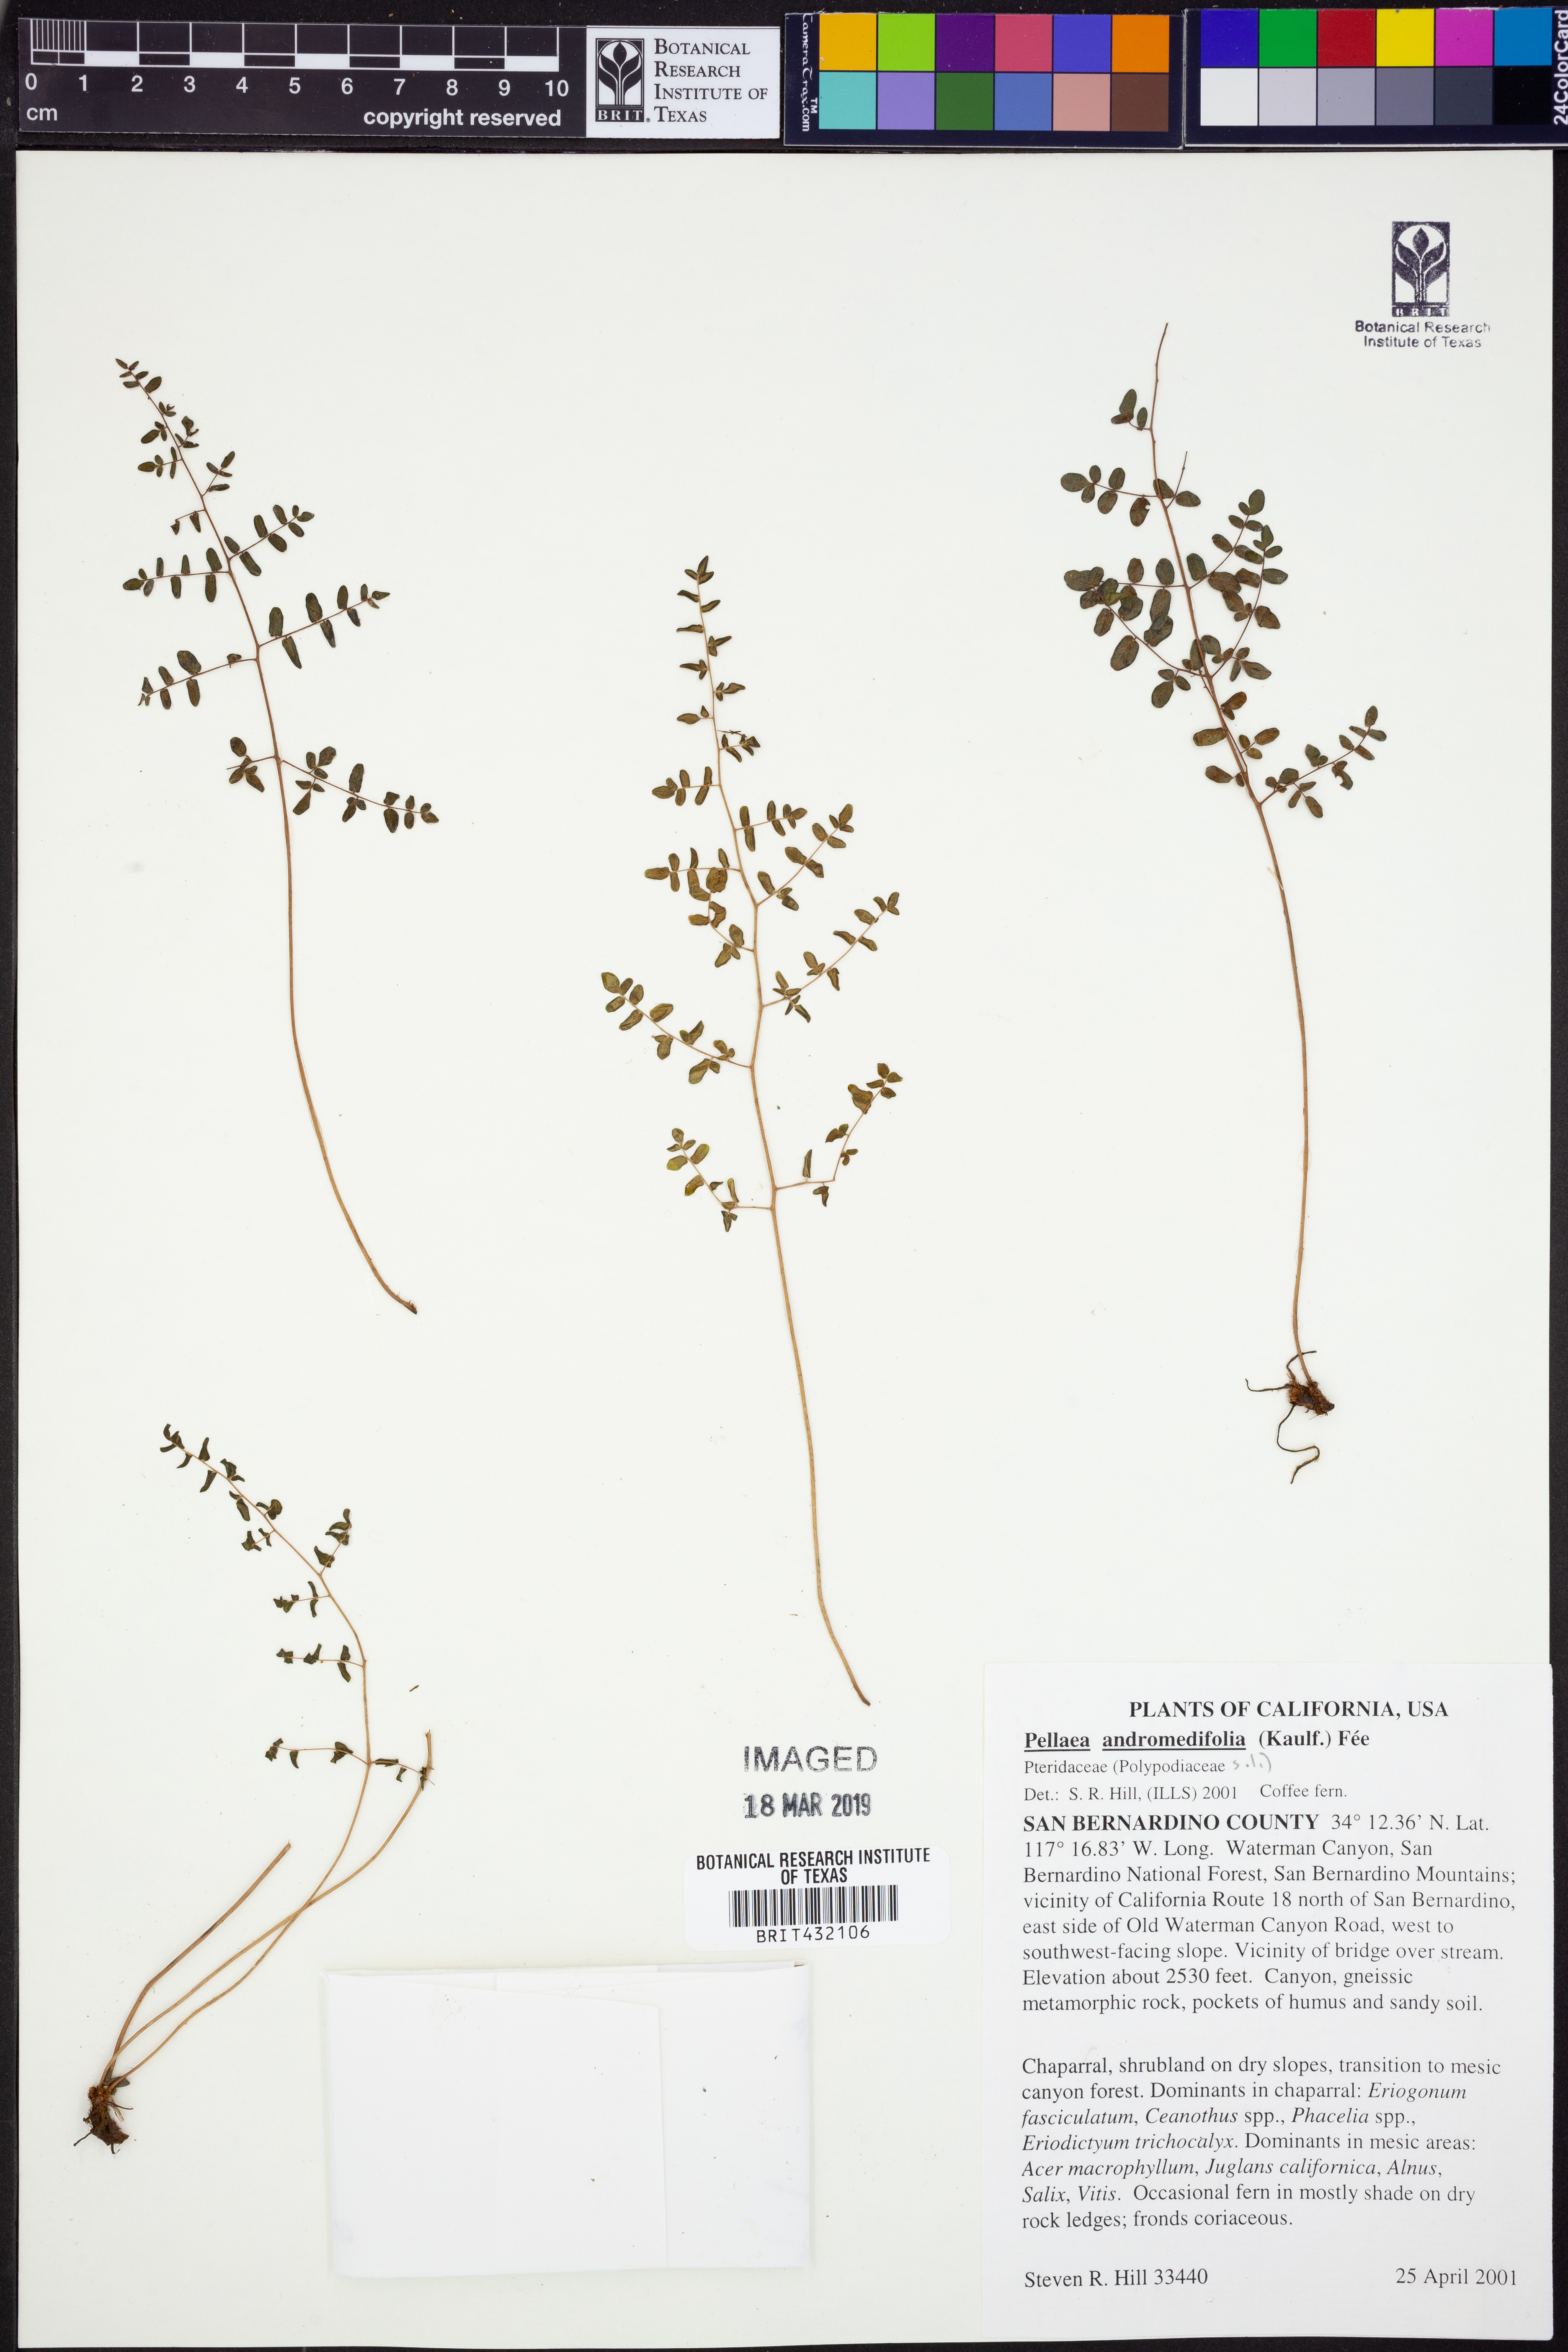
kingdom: Plantae
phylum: Tracheophyta
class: Polypodiopsida
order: Polypodiales
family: Pteridaceae
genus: Pellaea
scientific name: Pellaea andromedifolia
